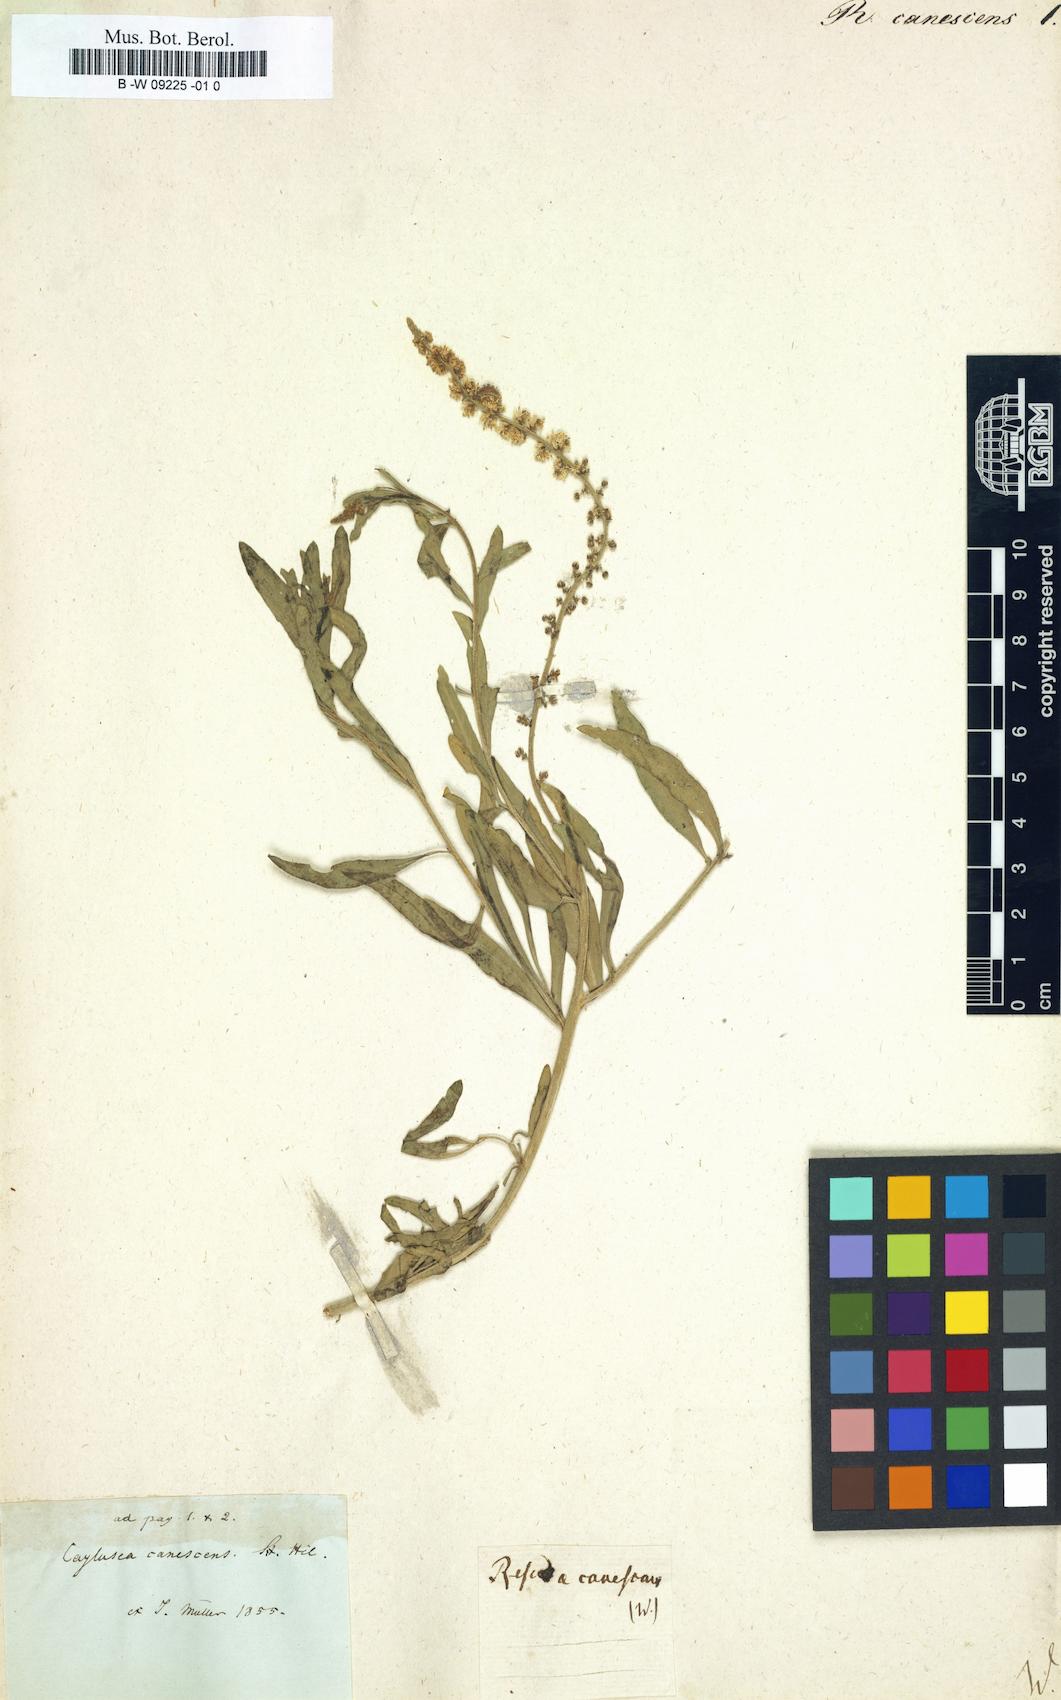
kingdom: Plantae
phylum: Tracheophyta
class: Magnoliopsida
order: Brassicales
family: Resedaceae
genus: Reseda
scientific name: Reseda canescens
